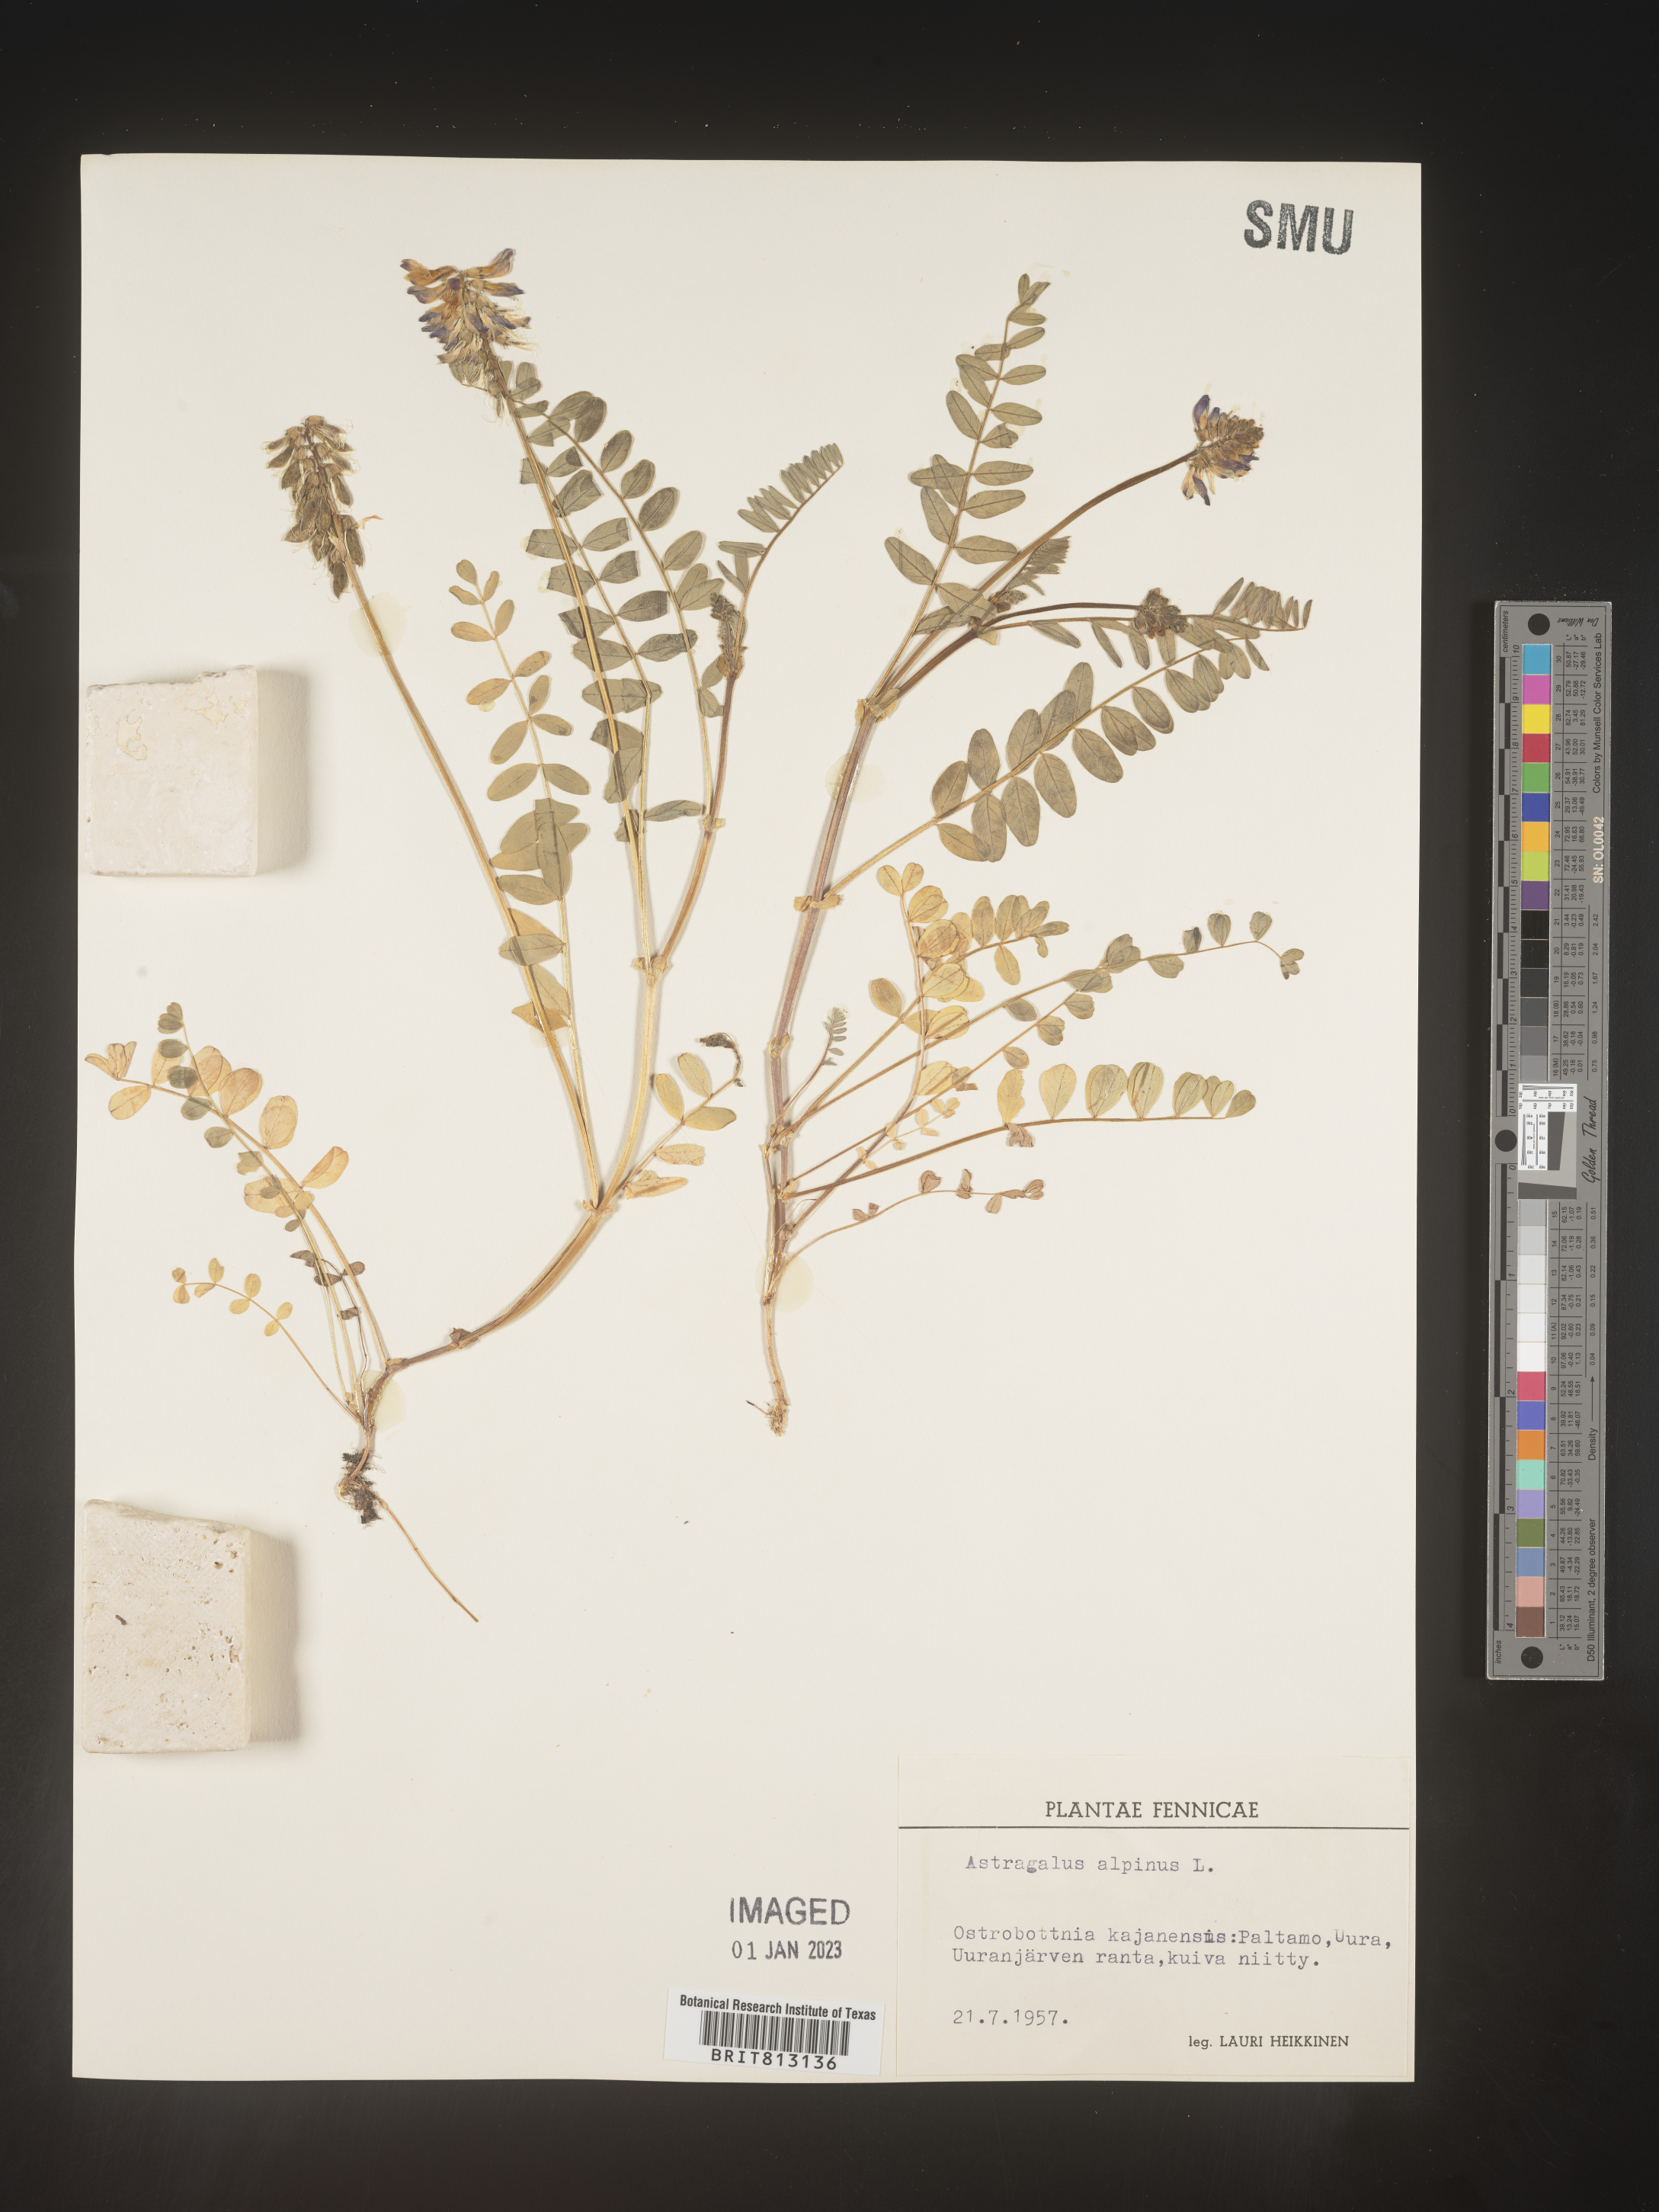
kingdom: Plantae
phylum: Tracheophyta
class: Magnoliopsida
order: Fabales
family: Fabaceae
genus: Astragalus
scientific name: Astragalus
